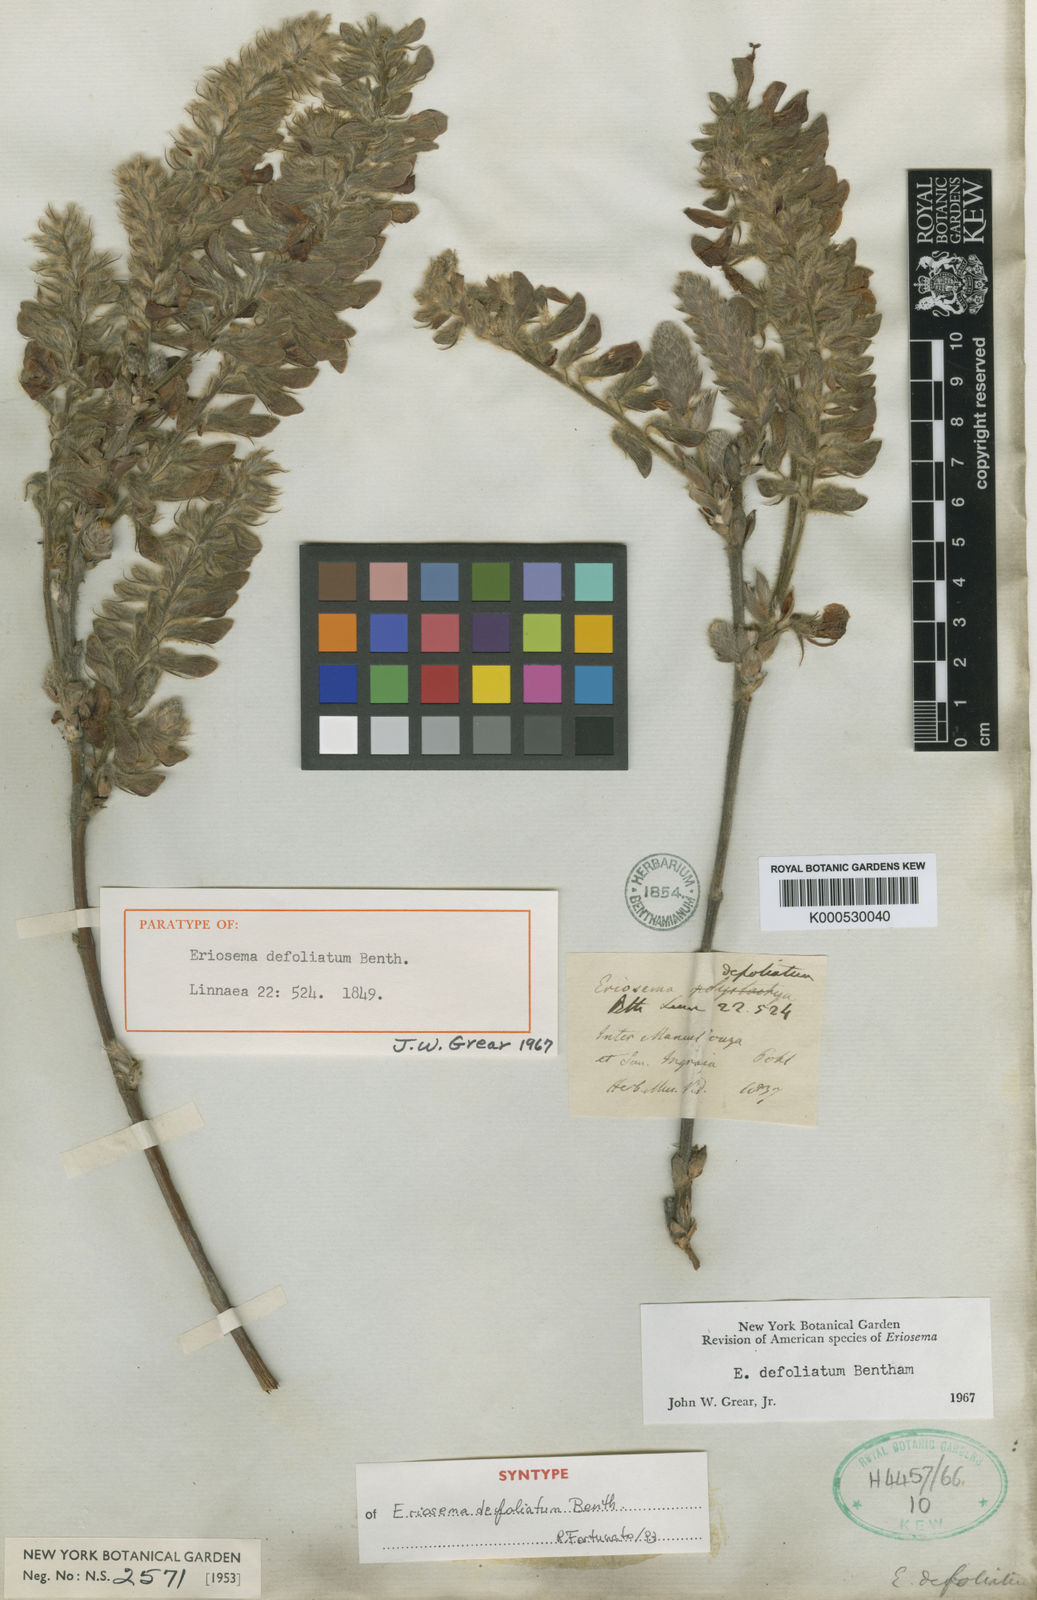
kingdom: Plantae
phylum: Tracheophyta
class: Magnoliopsida
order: Fabales
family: Fabaceae
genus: Eriosema
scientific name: Eriosema defoliatum
